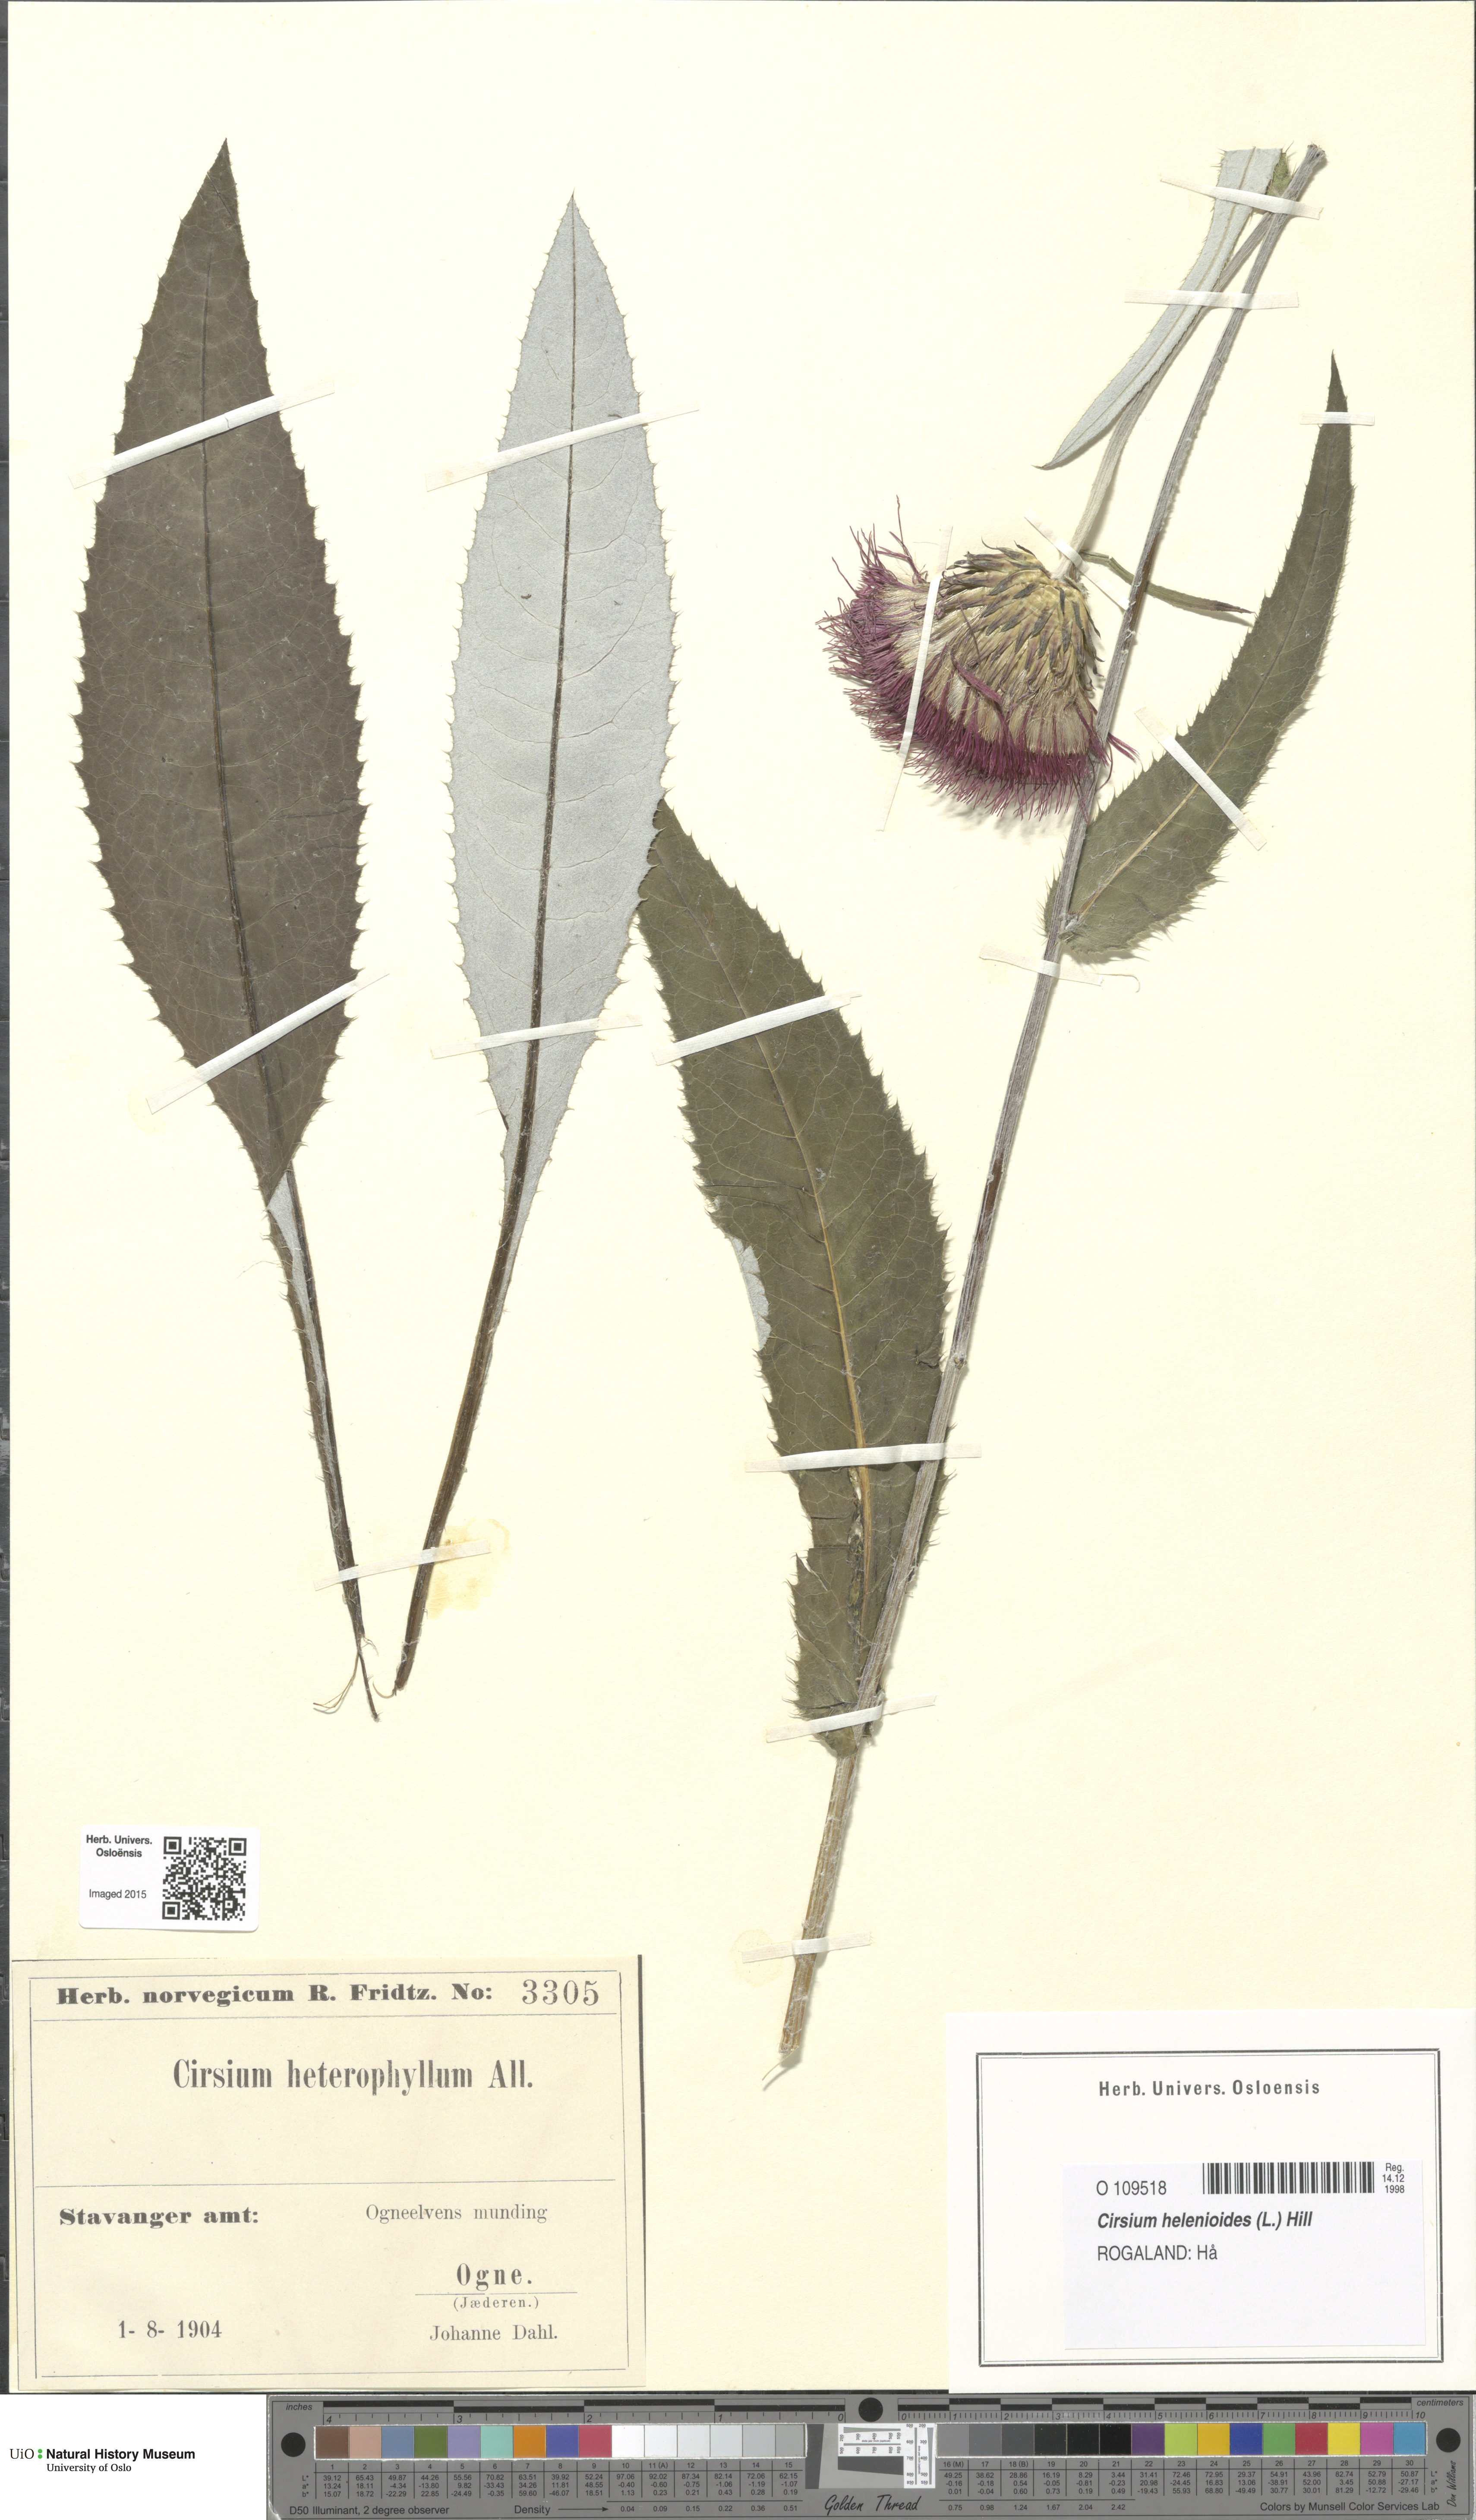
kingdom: Plantae
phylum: Tracheophyta
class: Magnoliopsida
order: Asterales
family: Asteraceae
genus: Cirsium
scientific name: Cirsium heterophyllum
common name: Melancholy thistle
